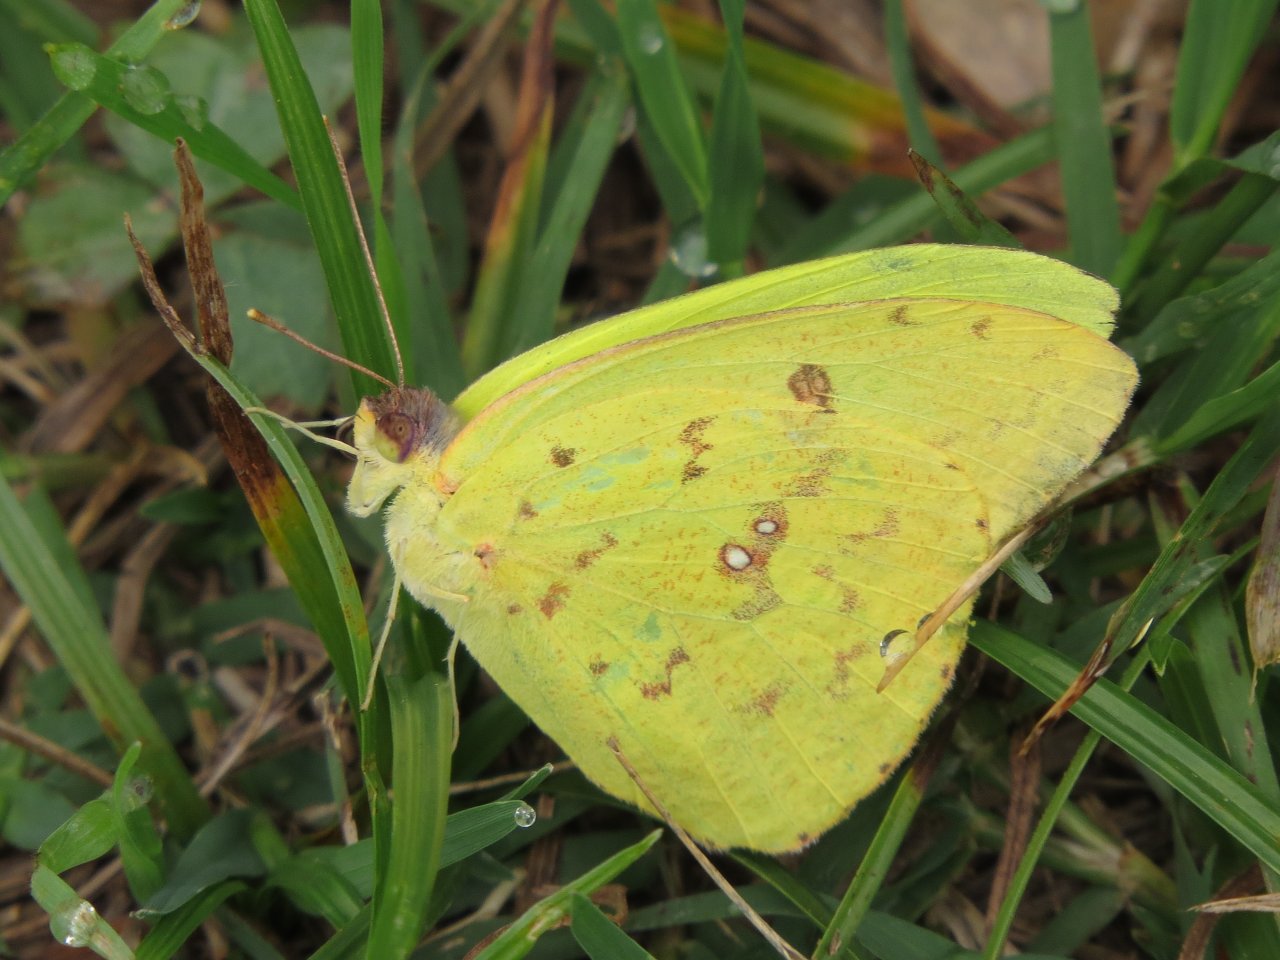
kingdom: Animalia
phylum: Arthropoda
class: Insecta
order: Lepidoptera
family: Pieridae
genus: Phoebis
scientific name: Phoebis sennae
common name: Cloudless Sulphur
